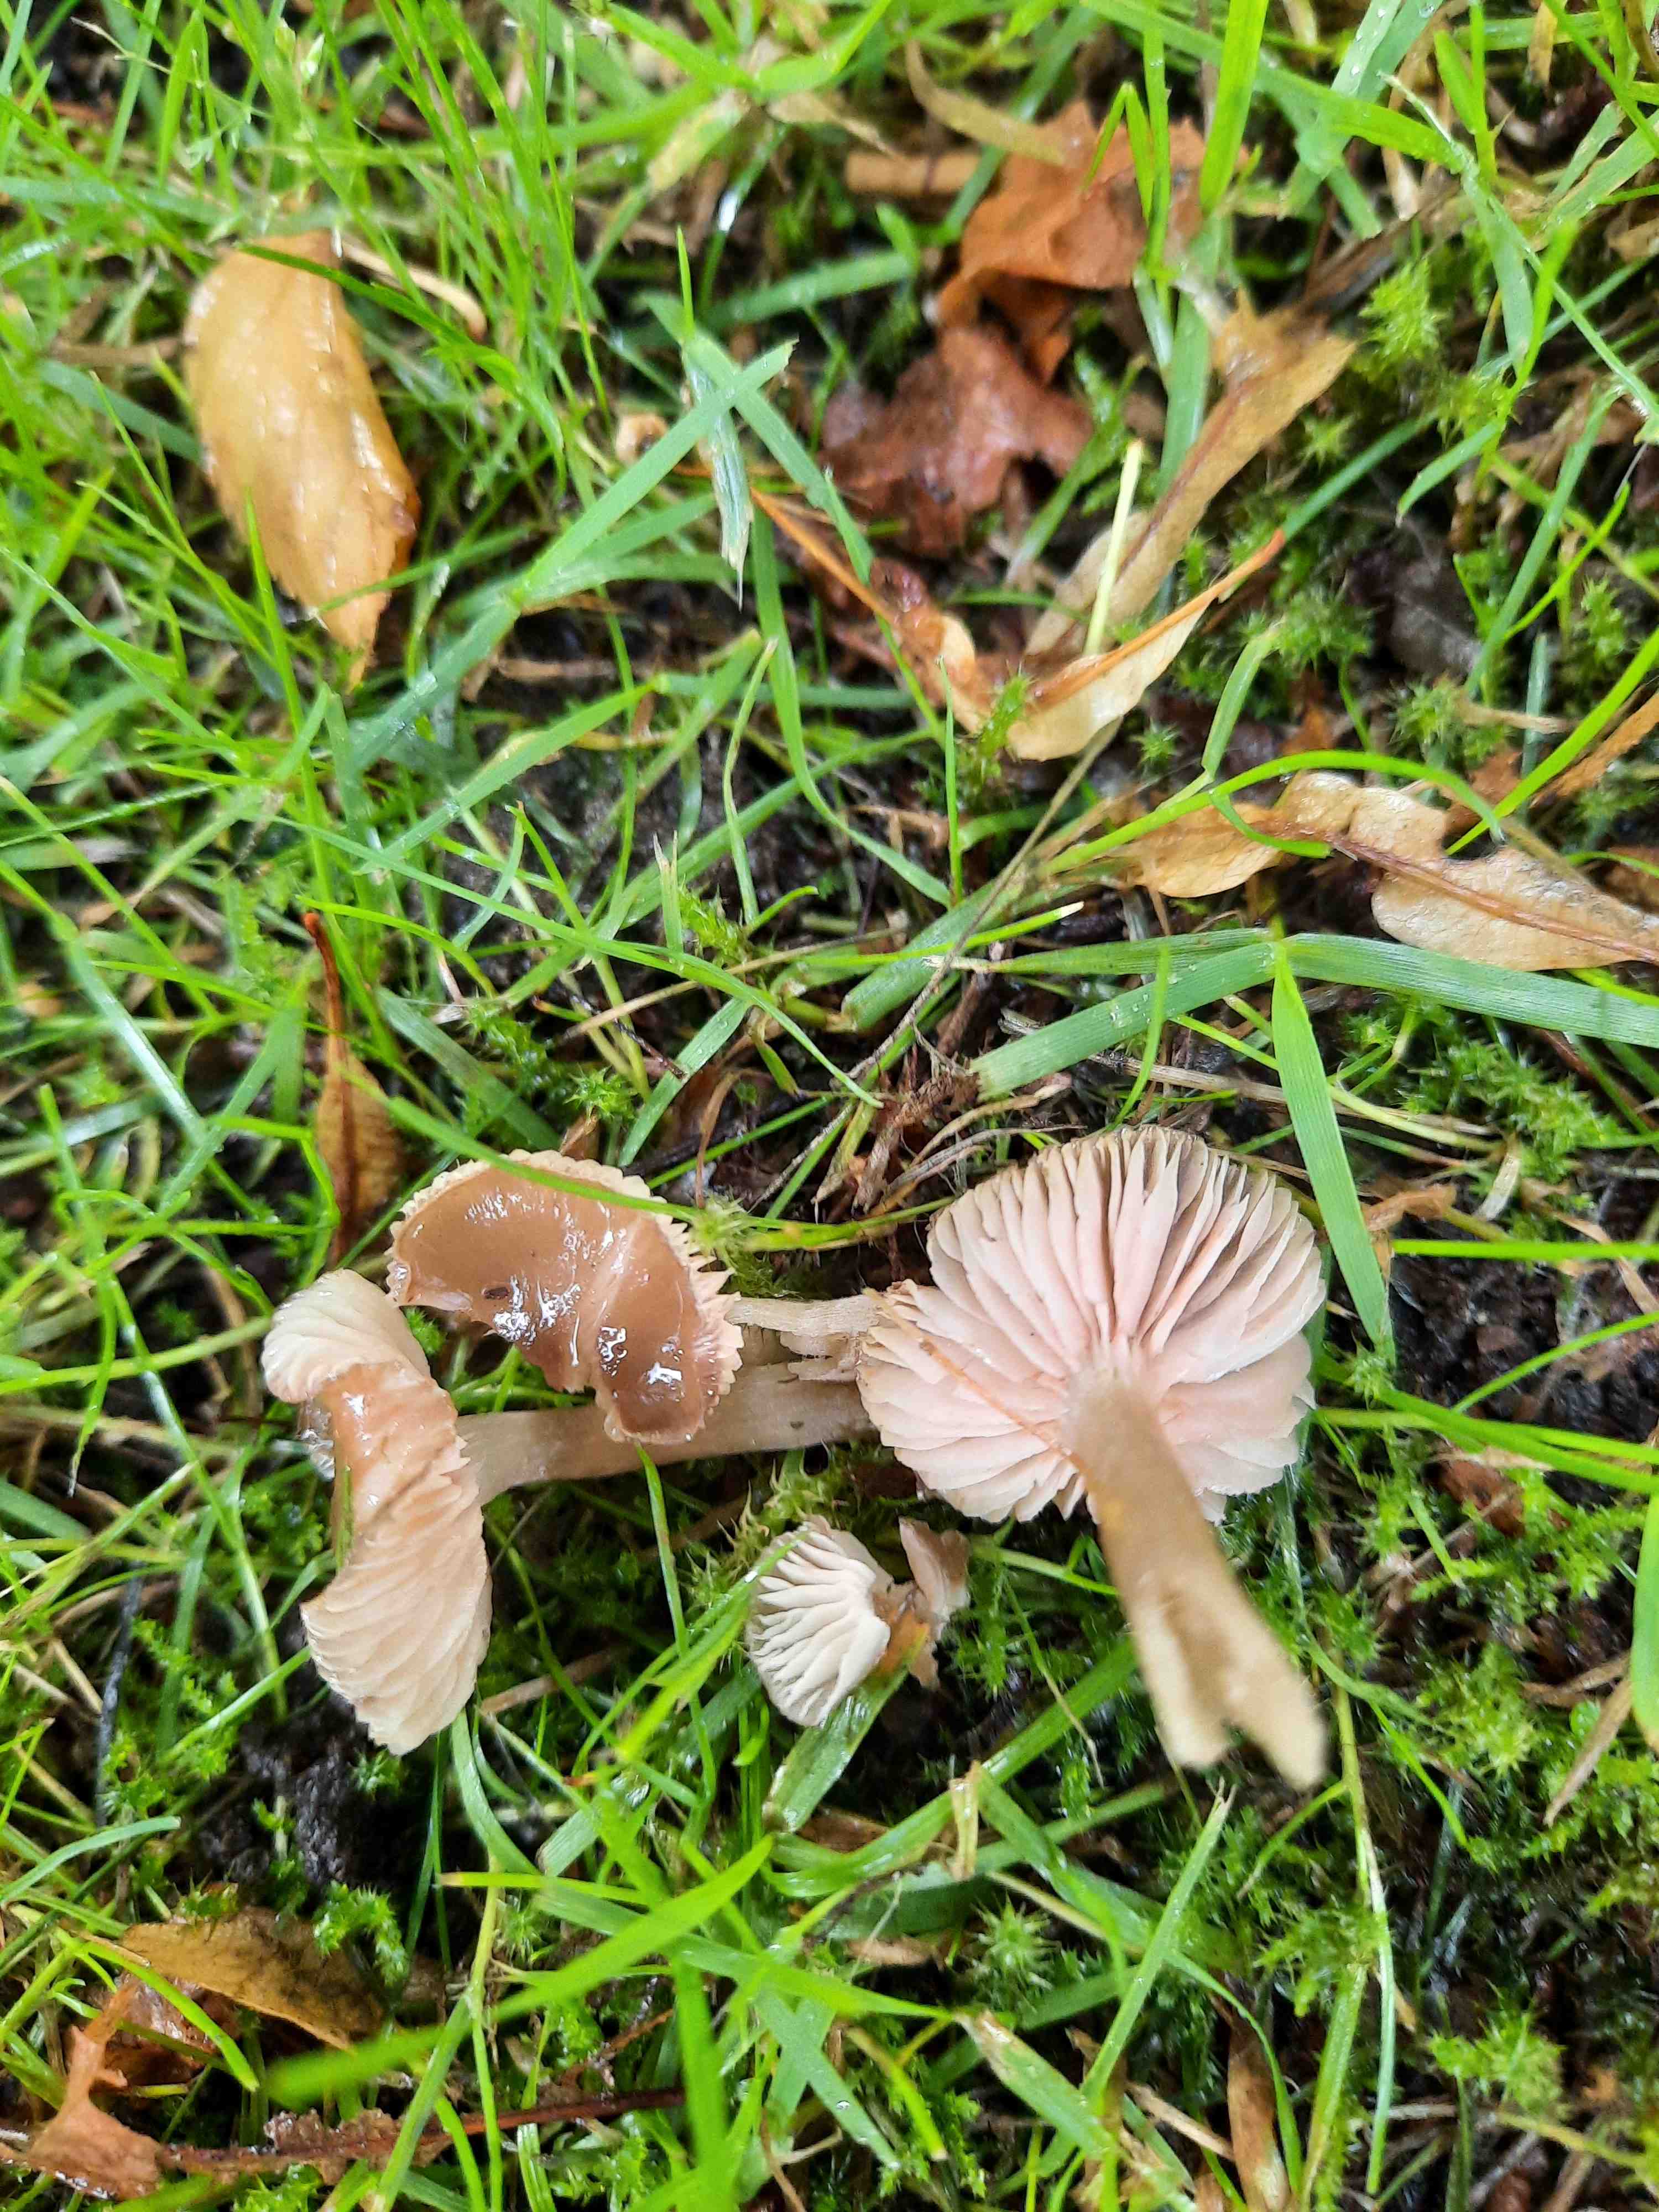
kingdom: Fungi
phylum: Basidiomycota
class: Agaricomycetes
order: Agaricales
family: Entolomataceae
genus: Entoloma
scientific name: Entoloma
